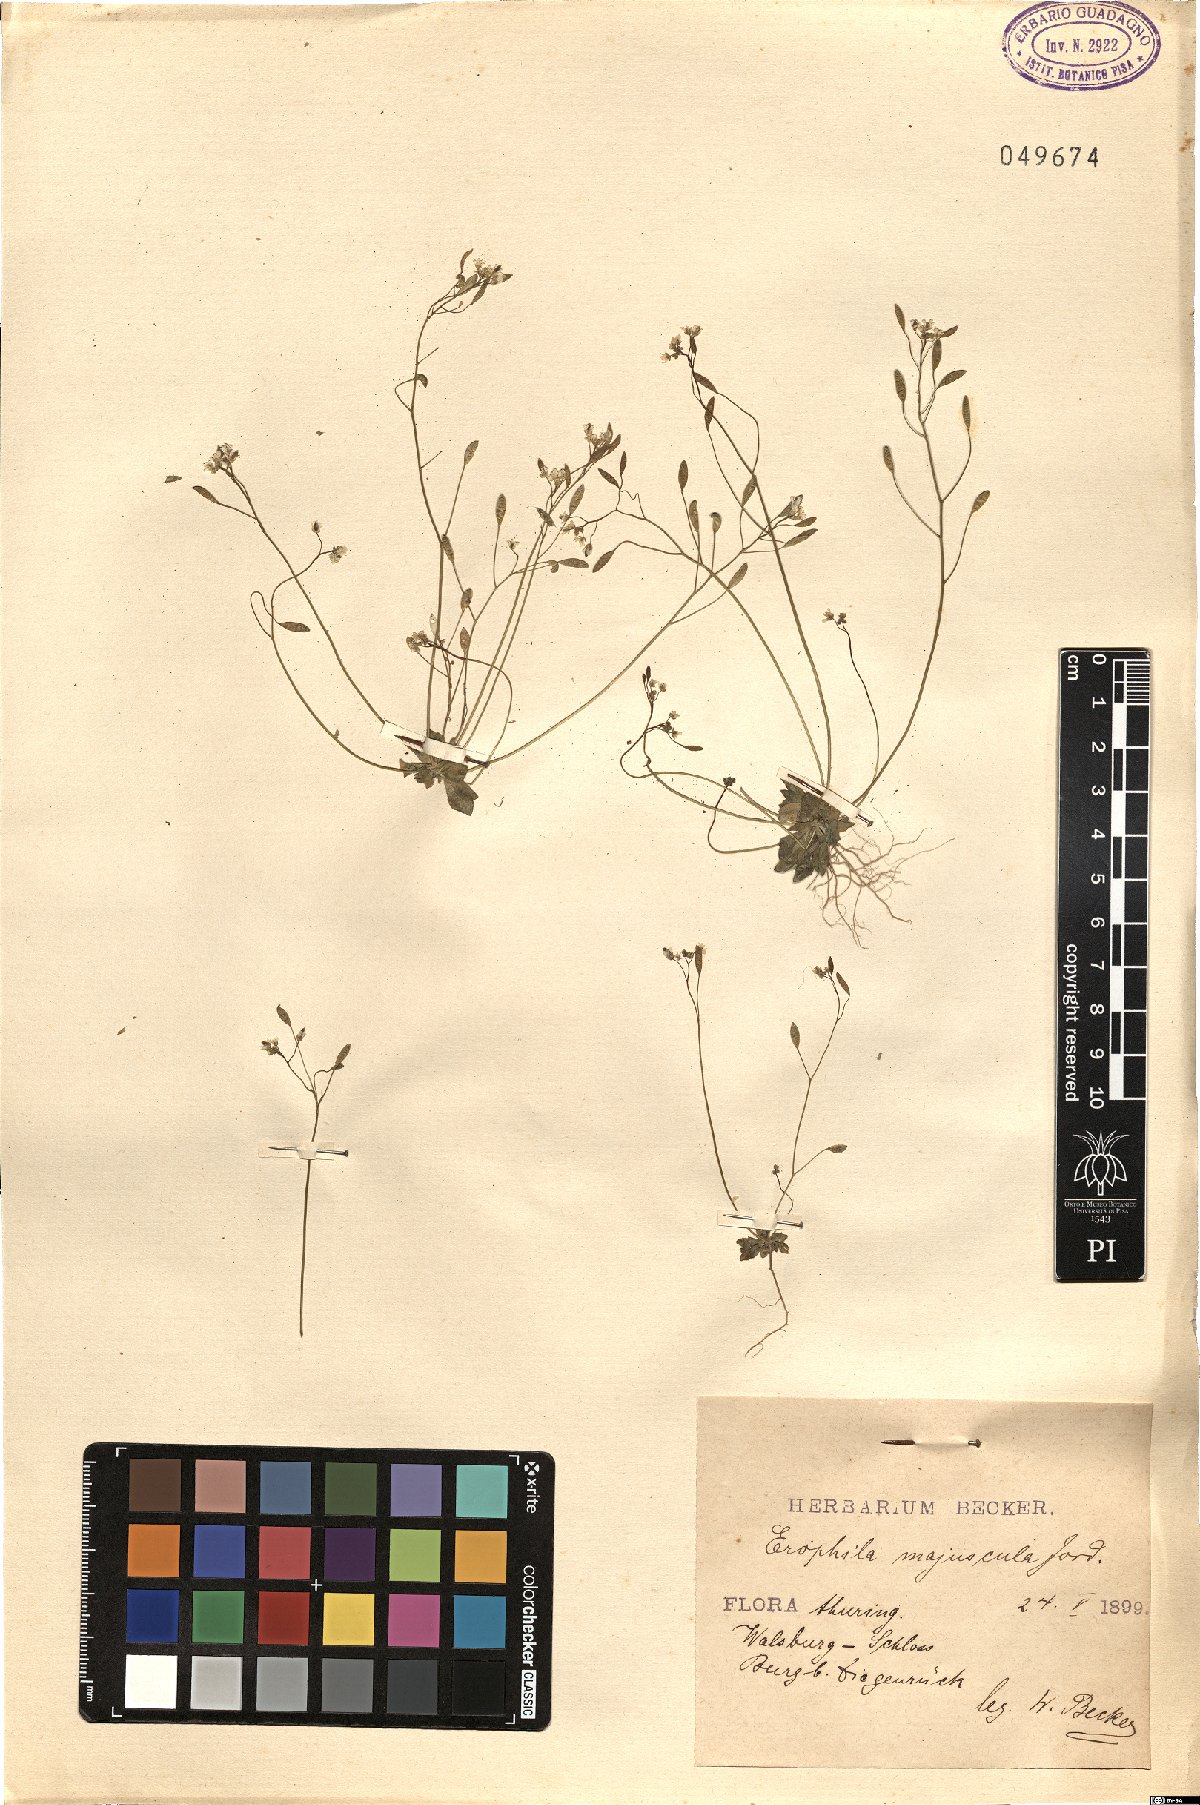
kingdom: Plantae
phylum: Tracheophyta
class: Magnoliopsida
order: Brassicales
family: Brassicaceae
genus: Draba
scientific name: Draba verna
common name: Spring draba
